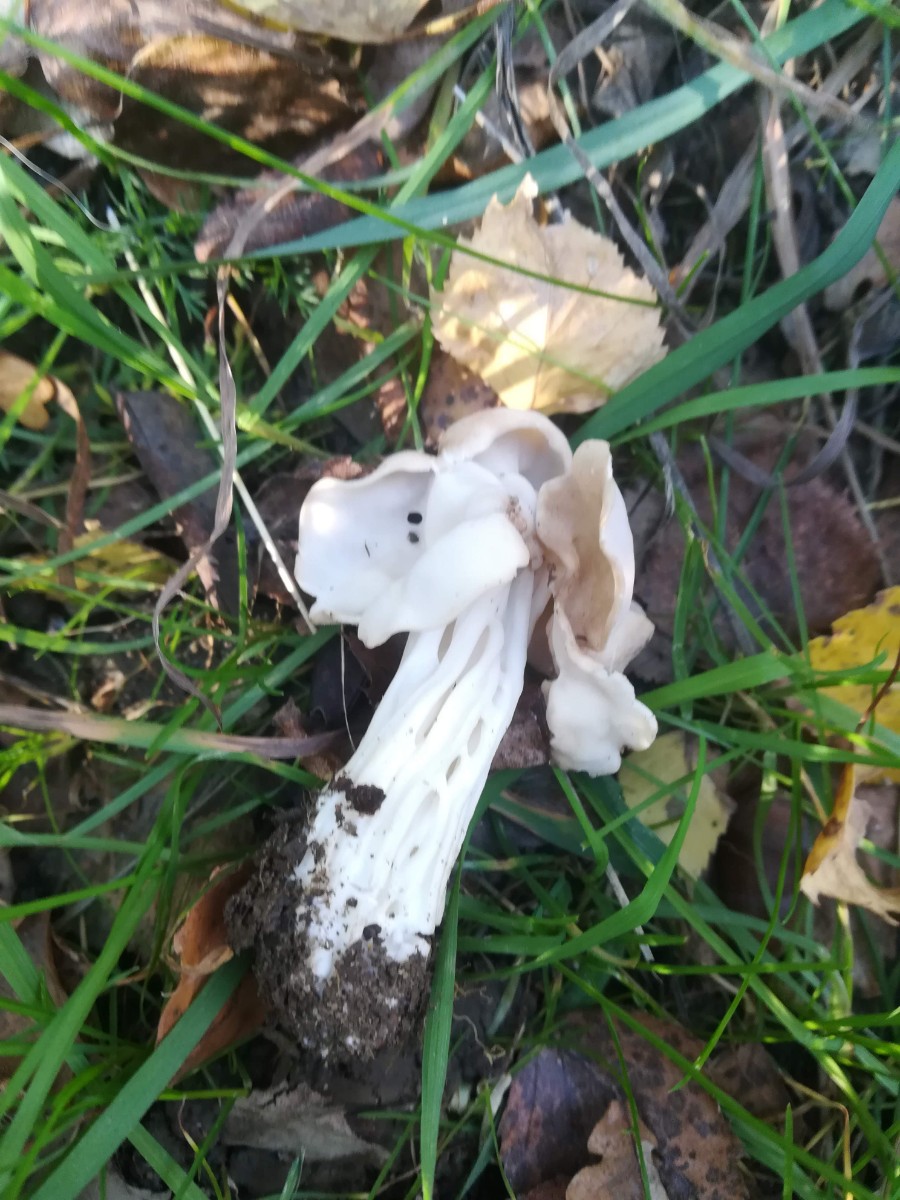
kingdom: Fungi
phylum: Ascomycota
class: Pezizomycetes
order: Pezizales
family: Helvellaceae
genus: Helvella
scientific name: Helvella crispa
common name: kruset foldhat
